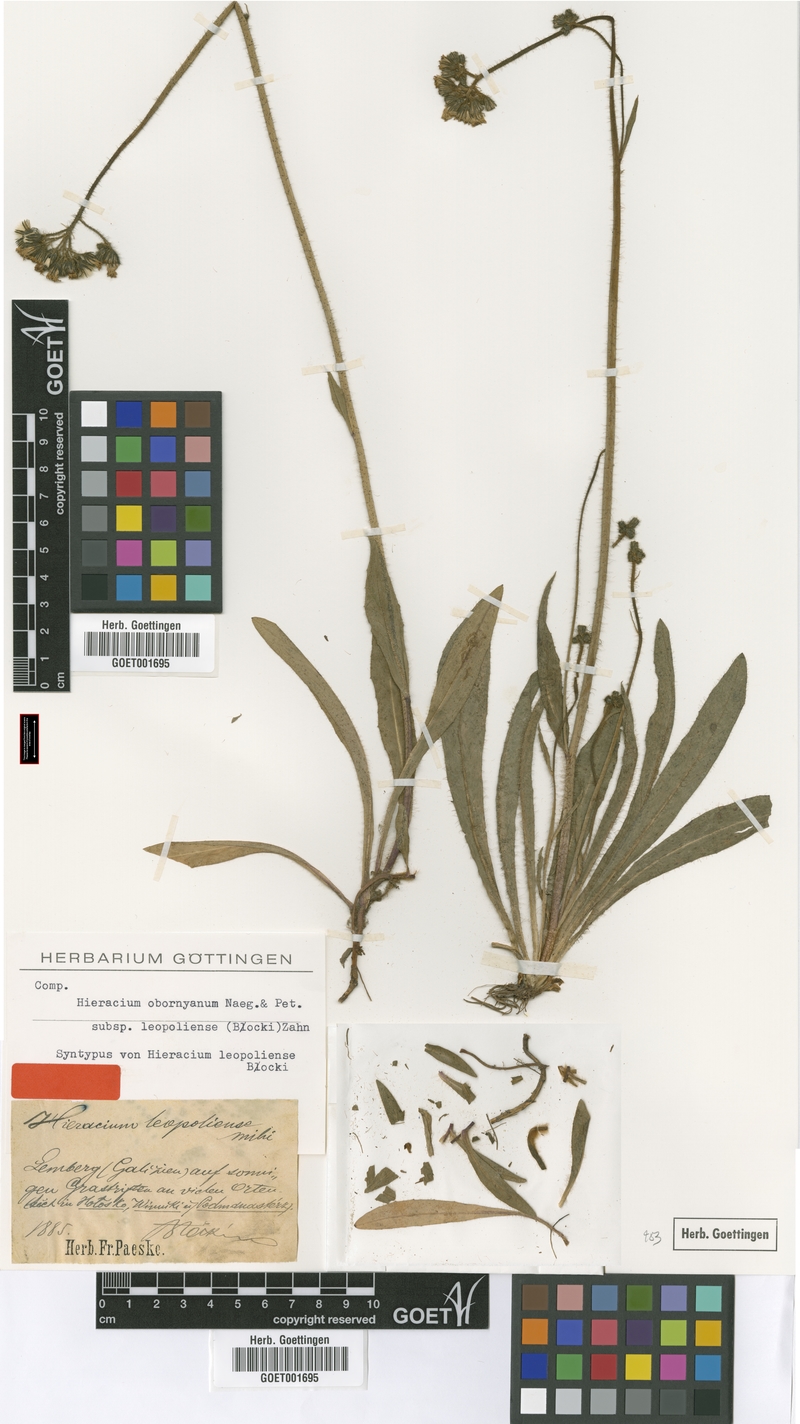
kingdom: Plantae
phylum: Tracheophyta
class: Magnoliopsida
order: Asterales
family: Asteraceae
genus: Pilosella
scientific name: Pilosella polymastix
